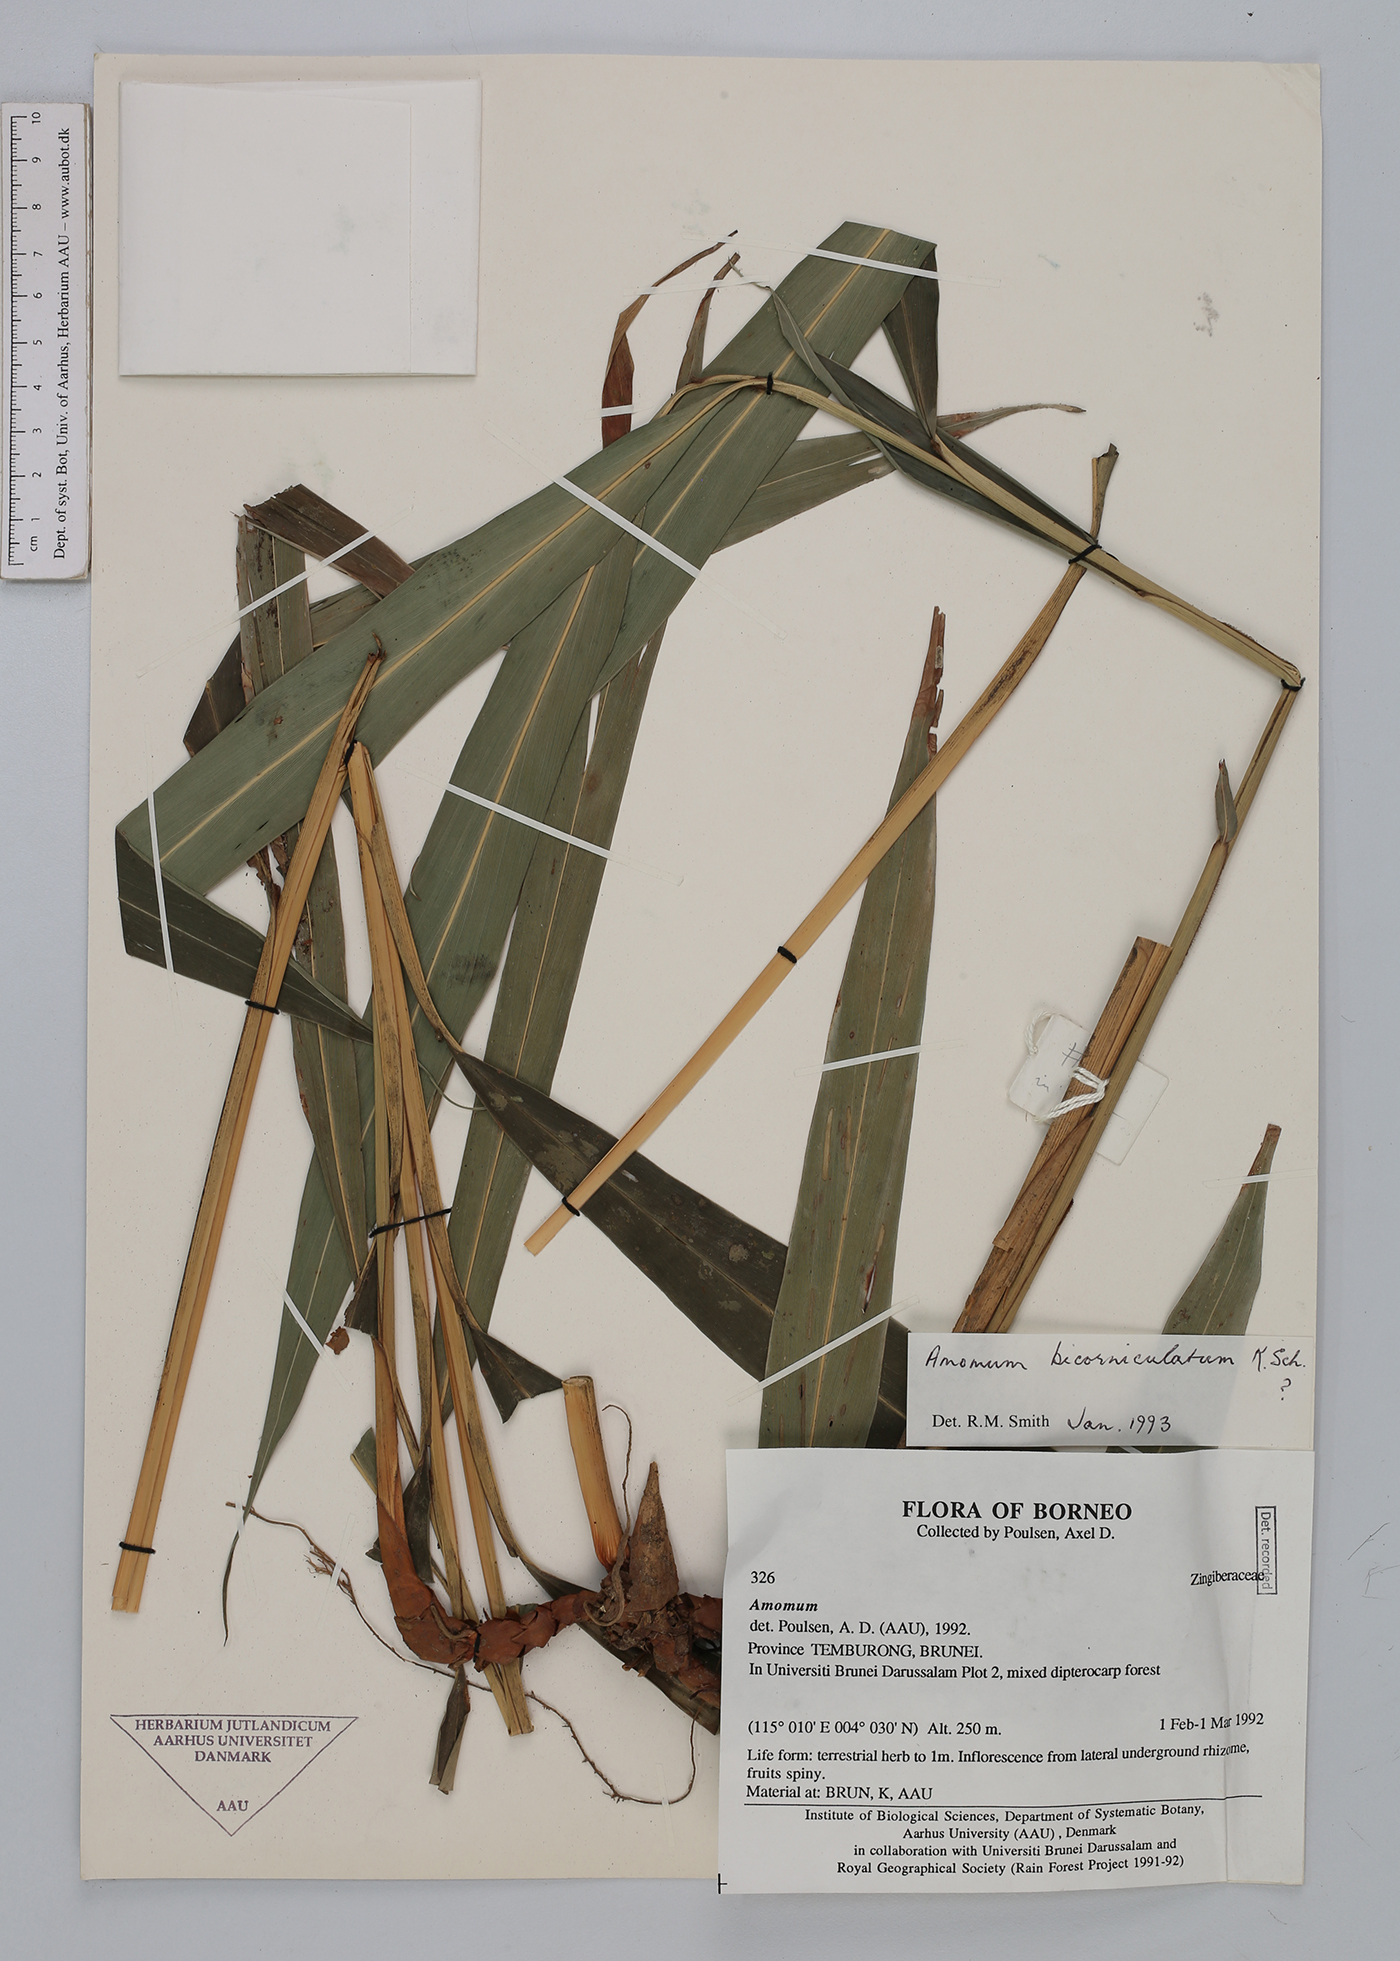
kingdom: Plantae
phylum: Tracheophyta
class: Liliopsida
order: Zingiberales
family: Zingiberaceae
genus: Wurfbainia
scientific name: Wurfbainia bicorniculata
